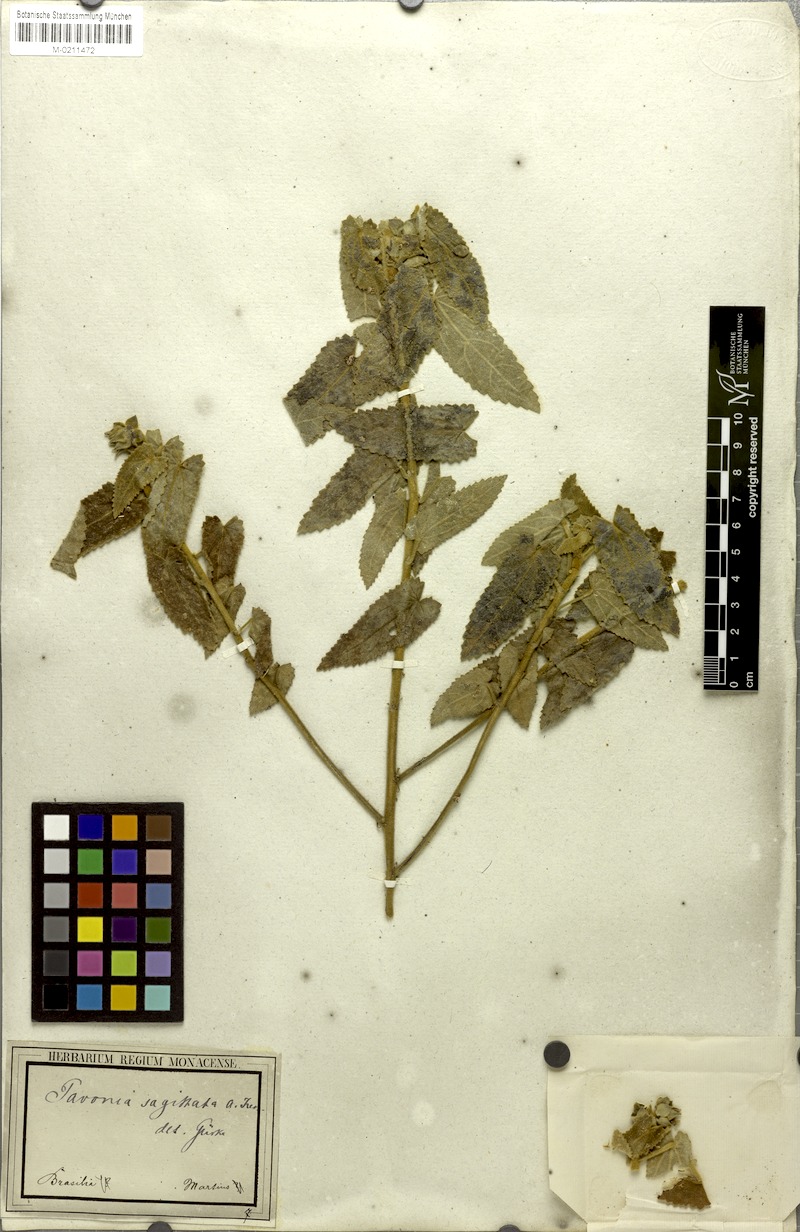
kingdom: Plantae
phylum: Tracheophyta
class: Magnoliopsida
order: Malvales
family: Malvaceae
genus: Pavonia
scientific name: Pavonia sagittata
